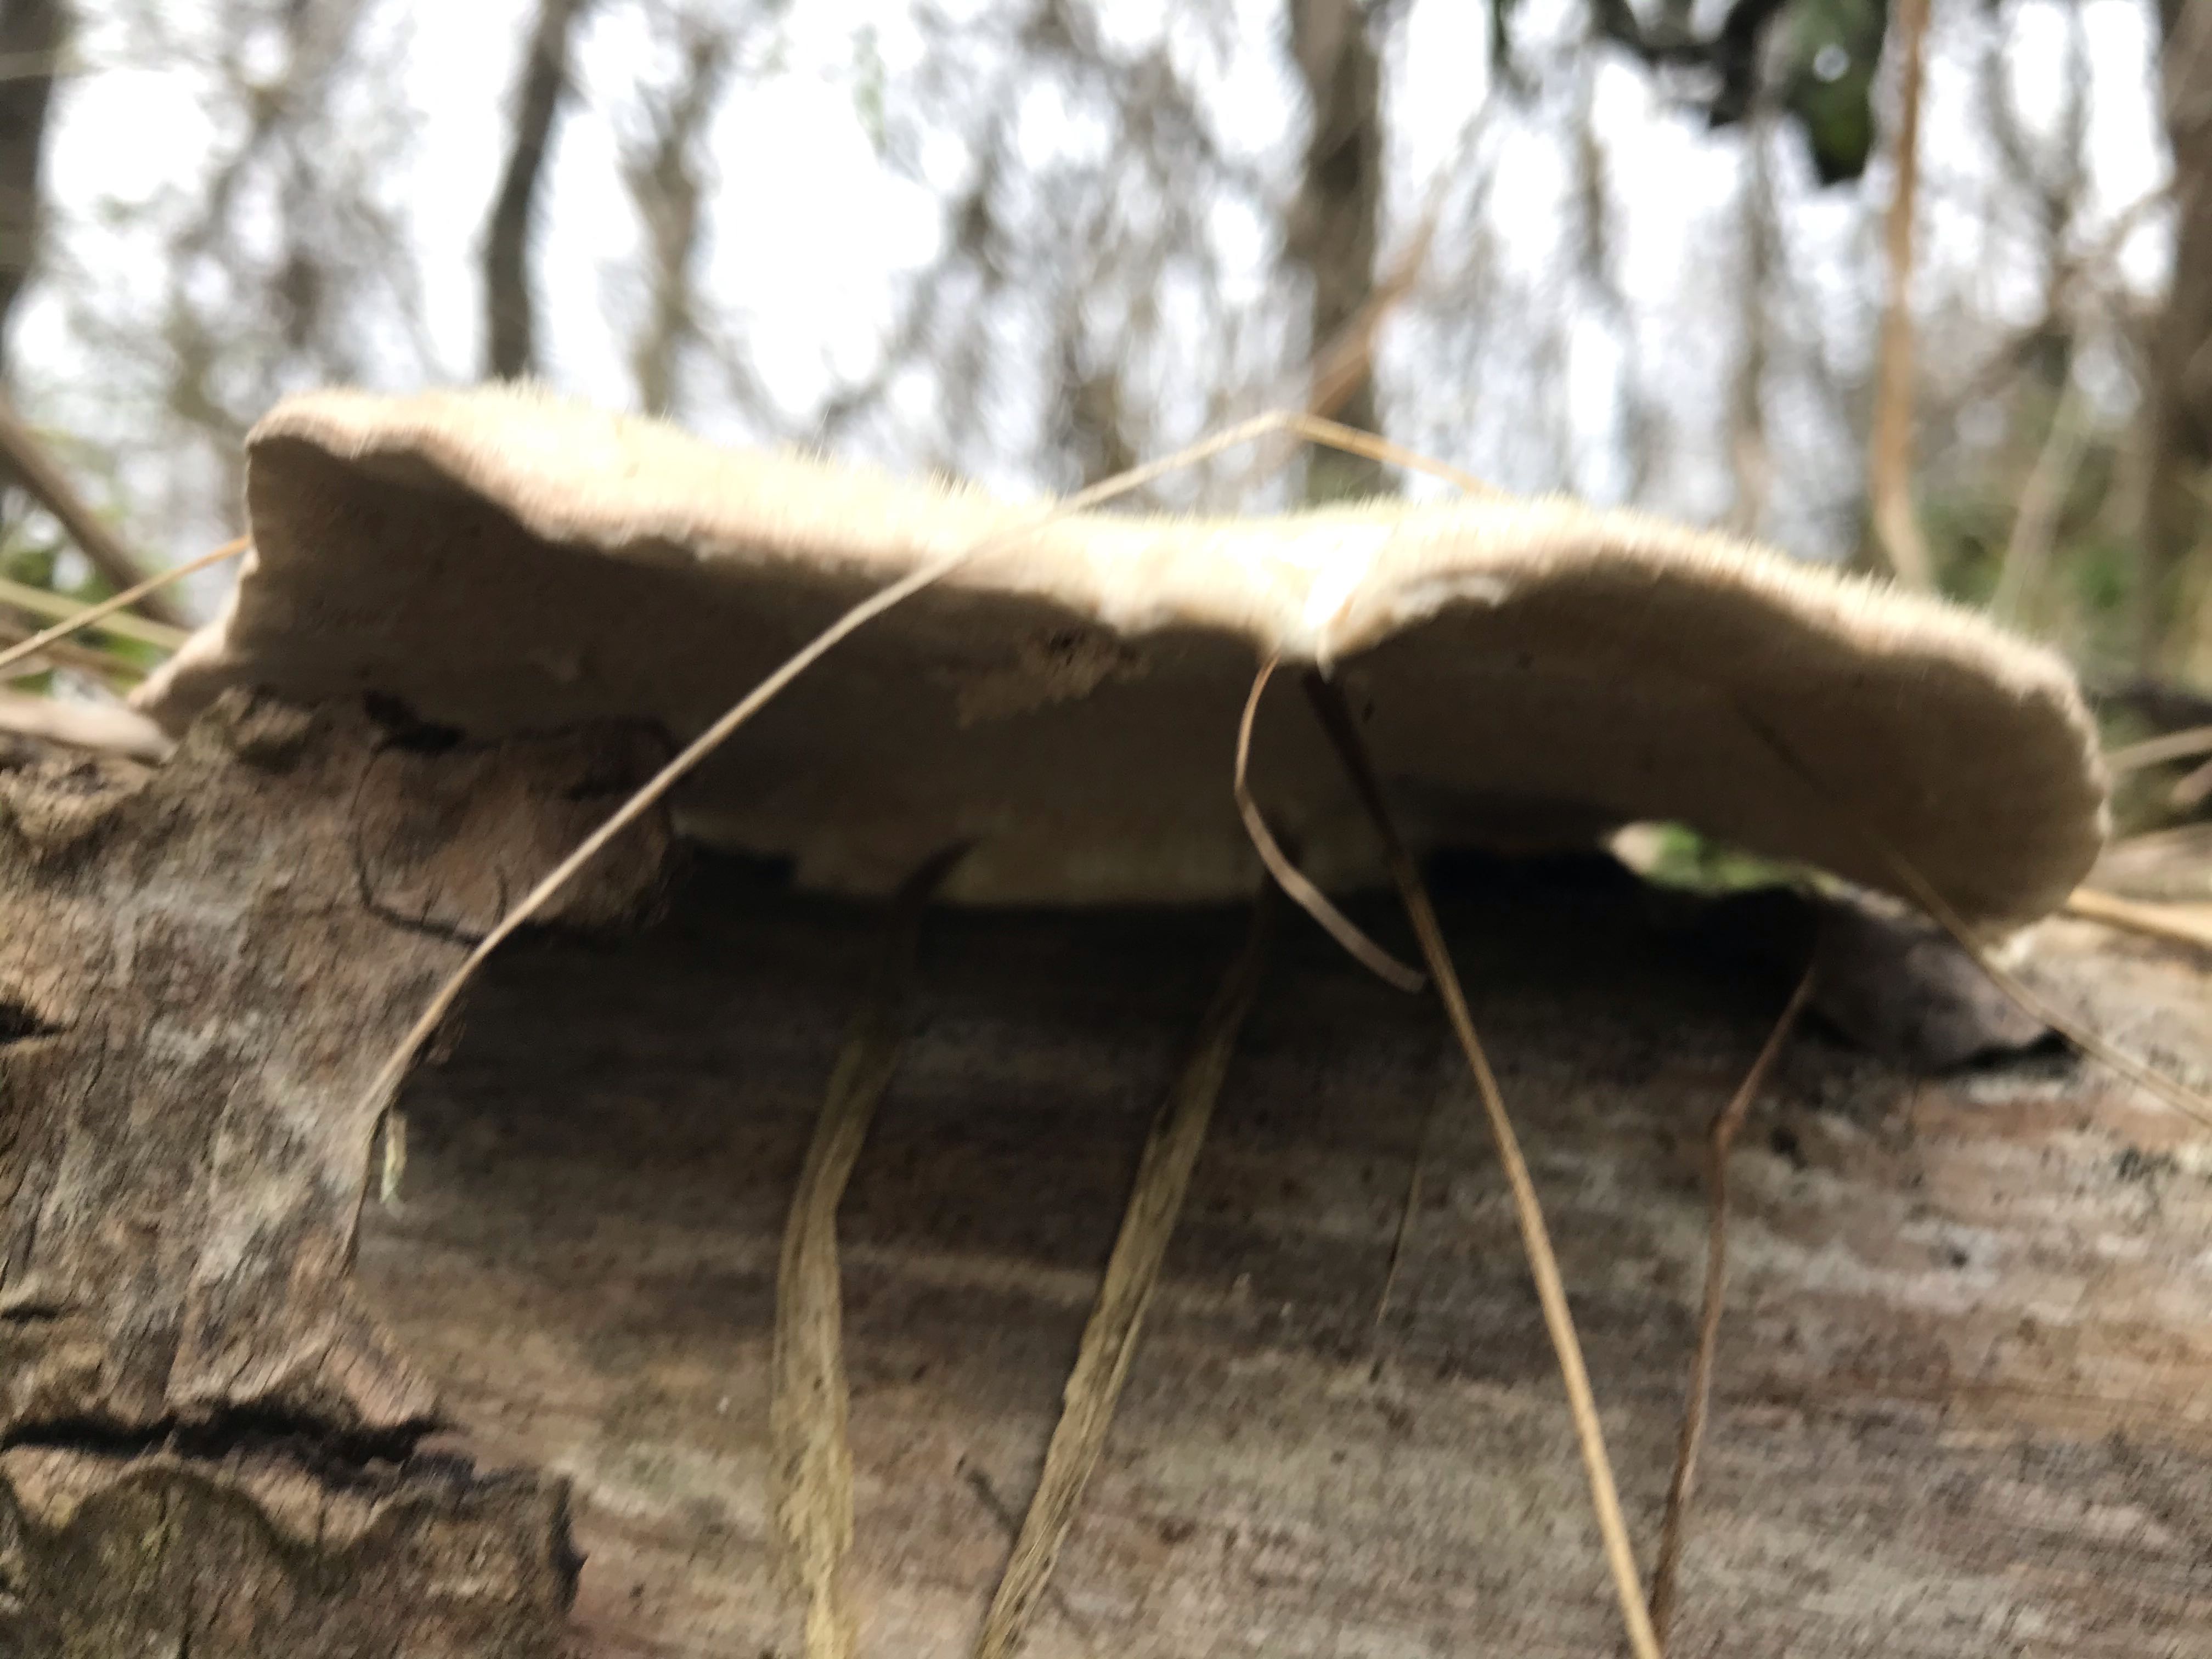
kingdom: Fungi
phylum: Basidiomycota
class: Agaricomycetes
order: Polyporales
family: Polyporaceae
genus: Trametes
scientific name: Trametes hirsuta
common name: håret læderporesvamp
